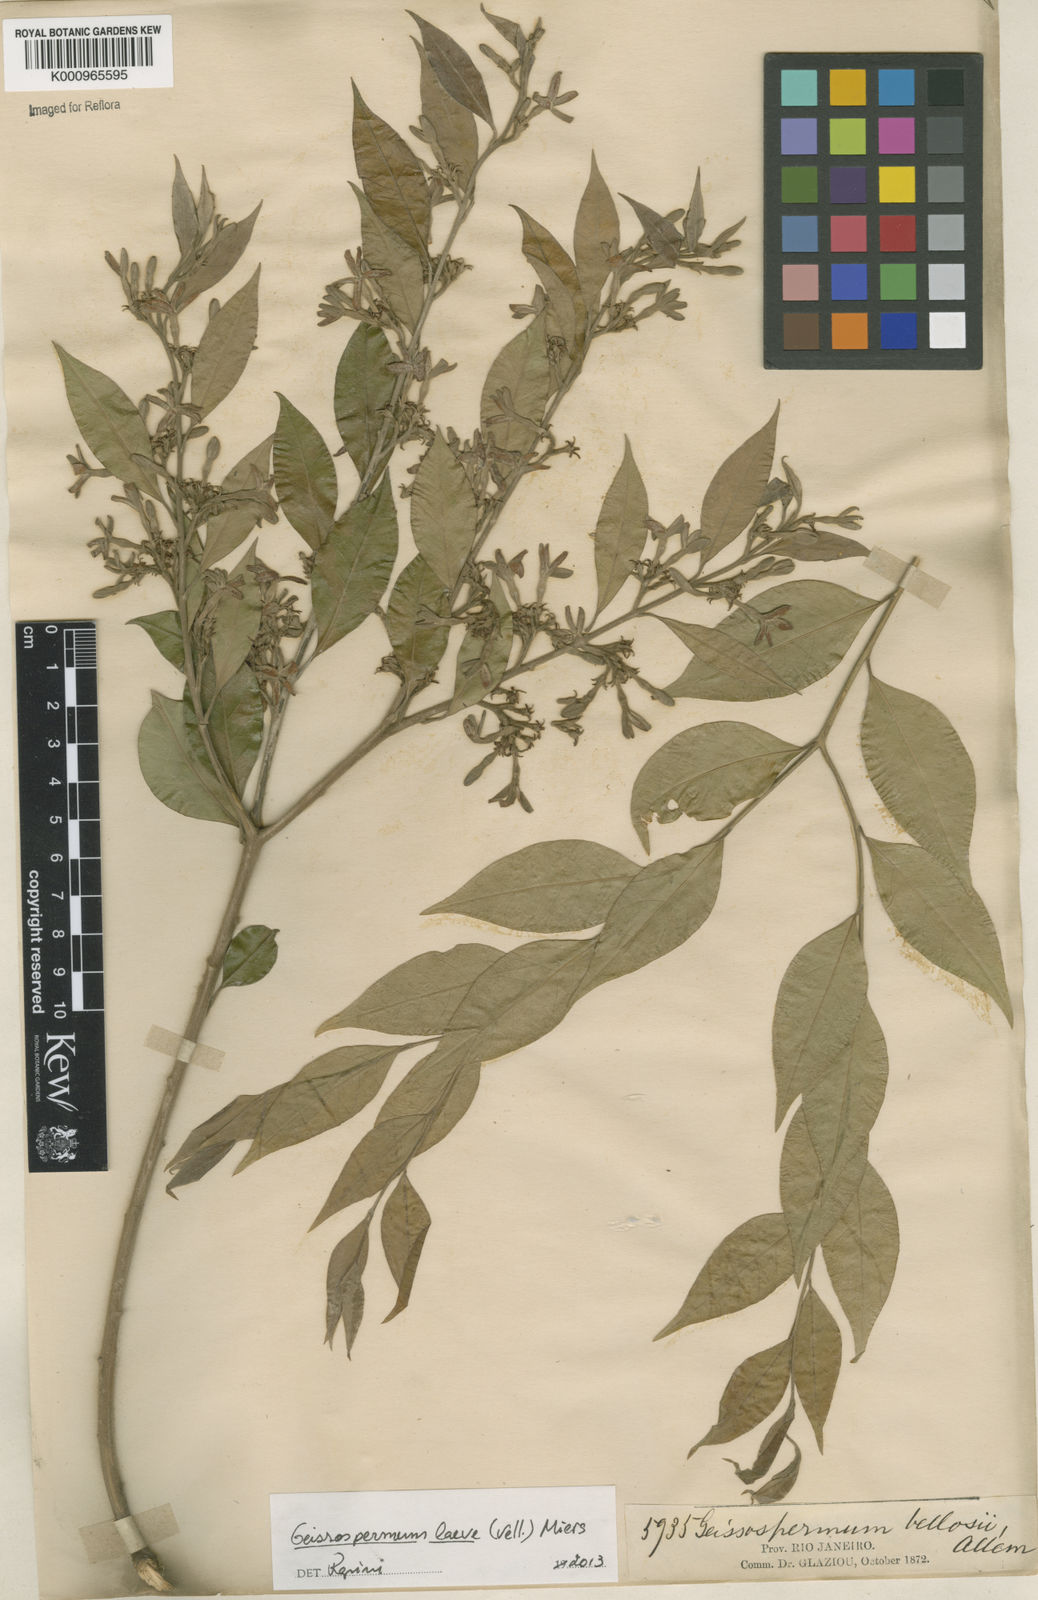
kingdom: Plantae
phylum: Tracheophyta
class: Magnoliopsida
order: Gentianales
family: Apocynaceae
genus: Geissospermum
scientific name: Geissospermum laeve
